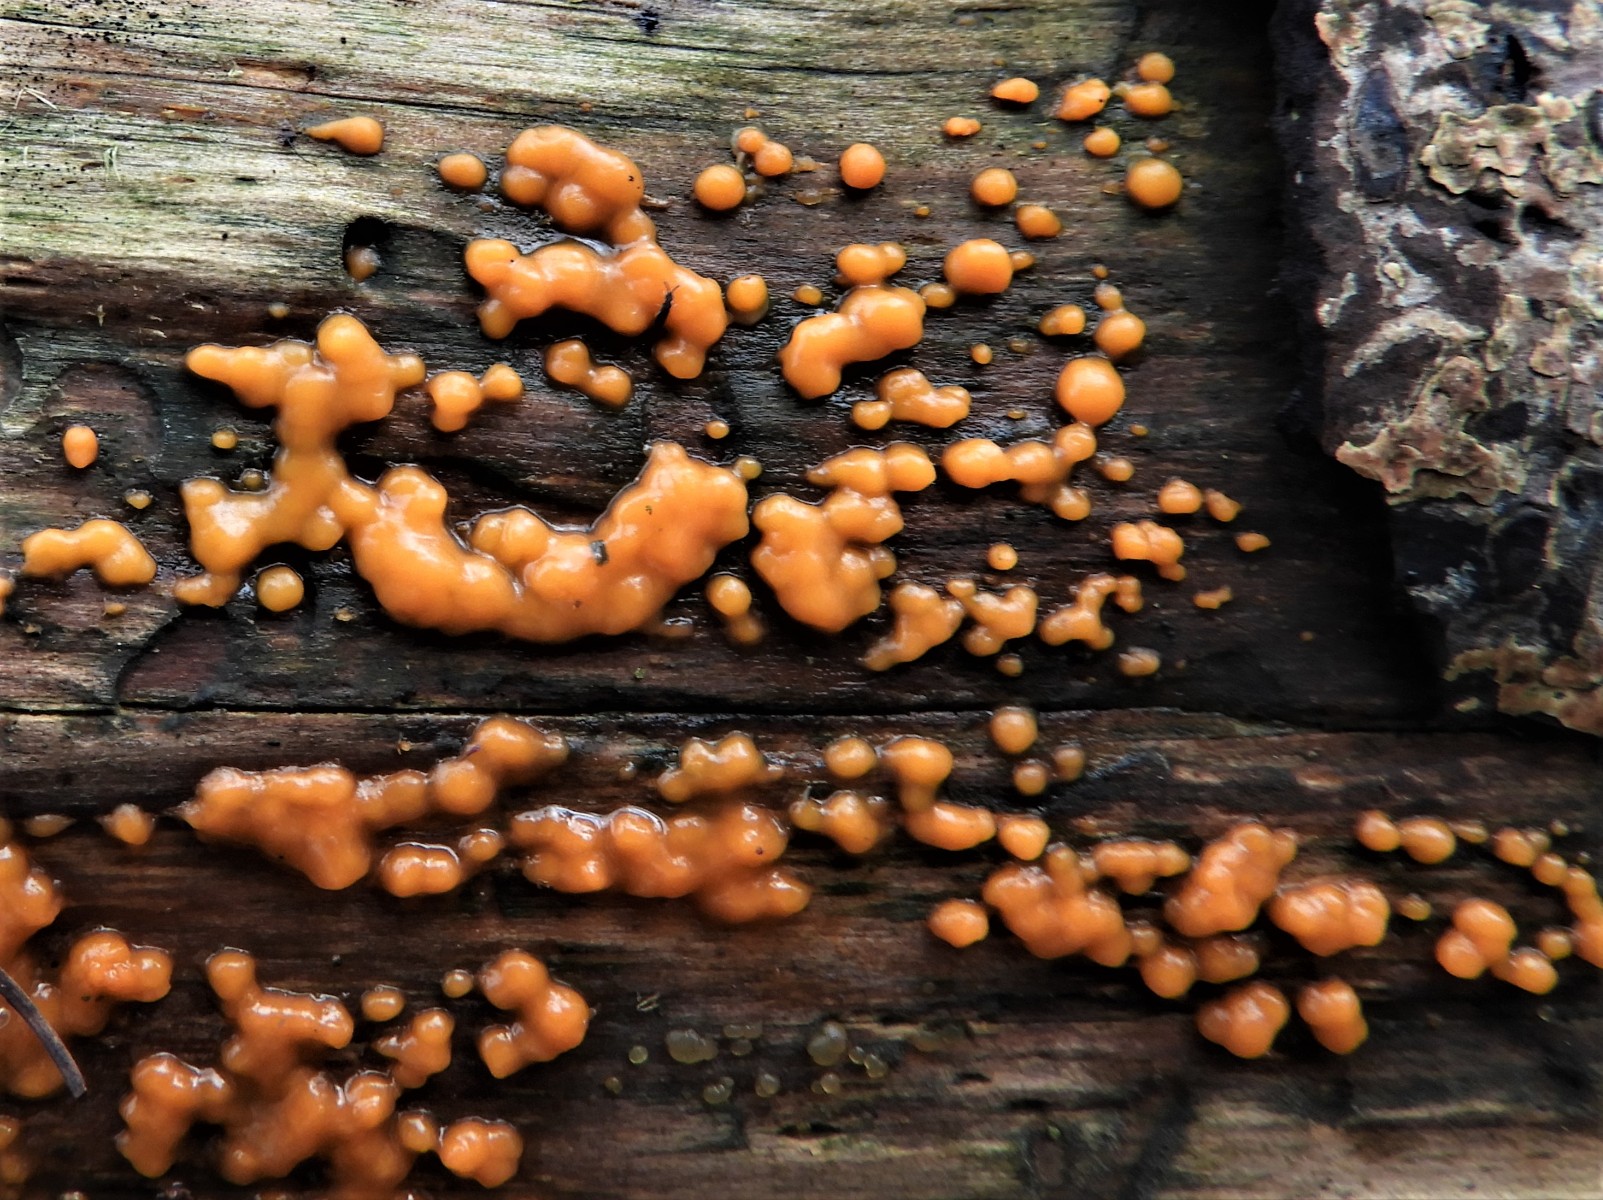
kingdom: Fungi
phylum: Basidiomycota
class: Dacrymycetes
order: Dacrymycetales
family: Dacrymycetaceae
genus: Dacrymyces
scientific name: Dacrymyces stillatus
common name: almindelig tåresvamp
